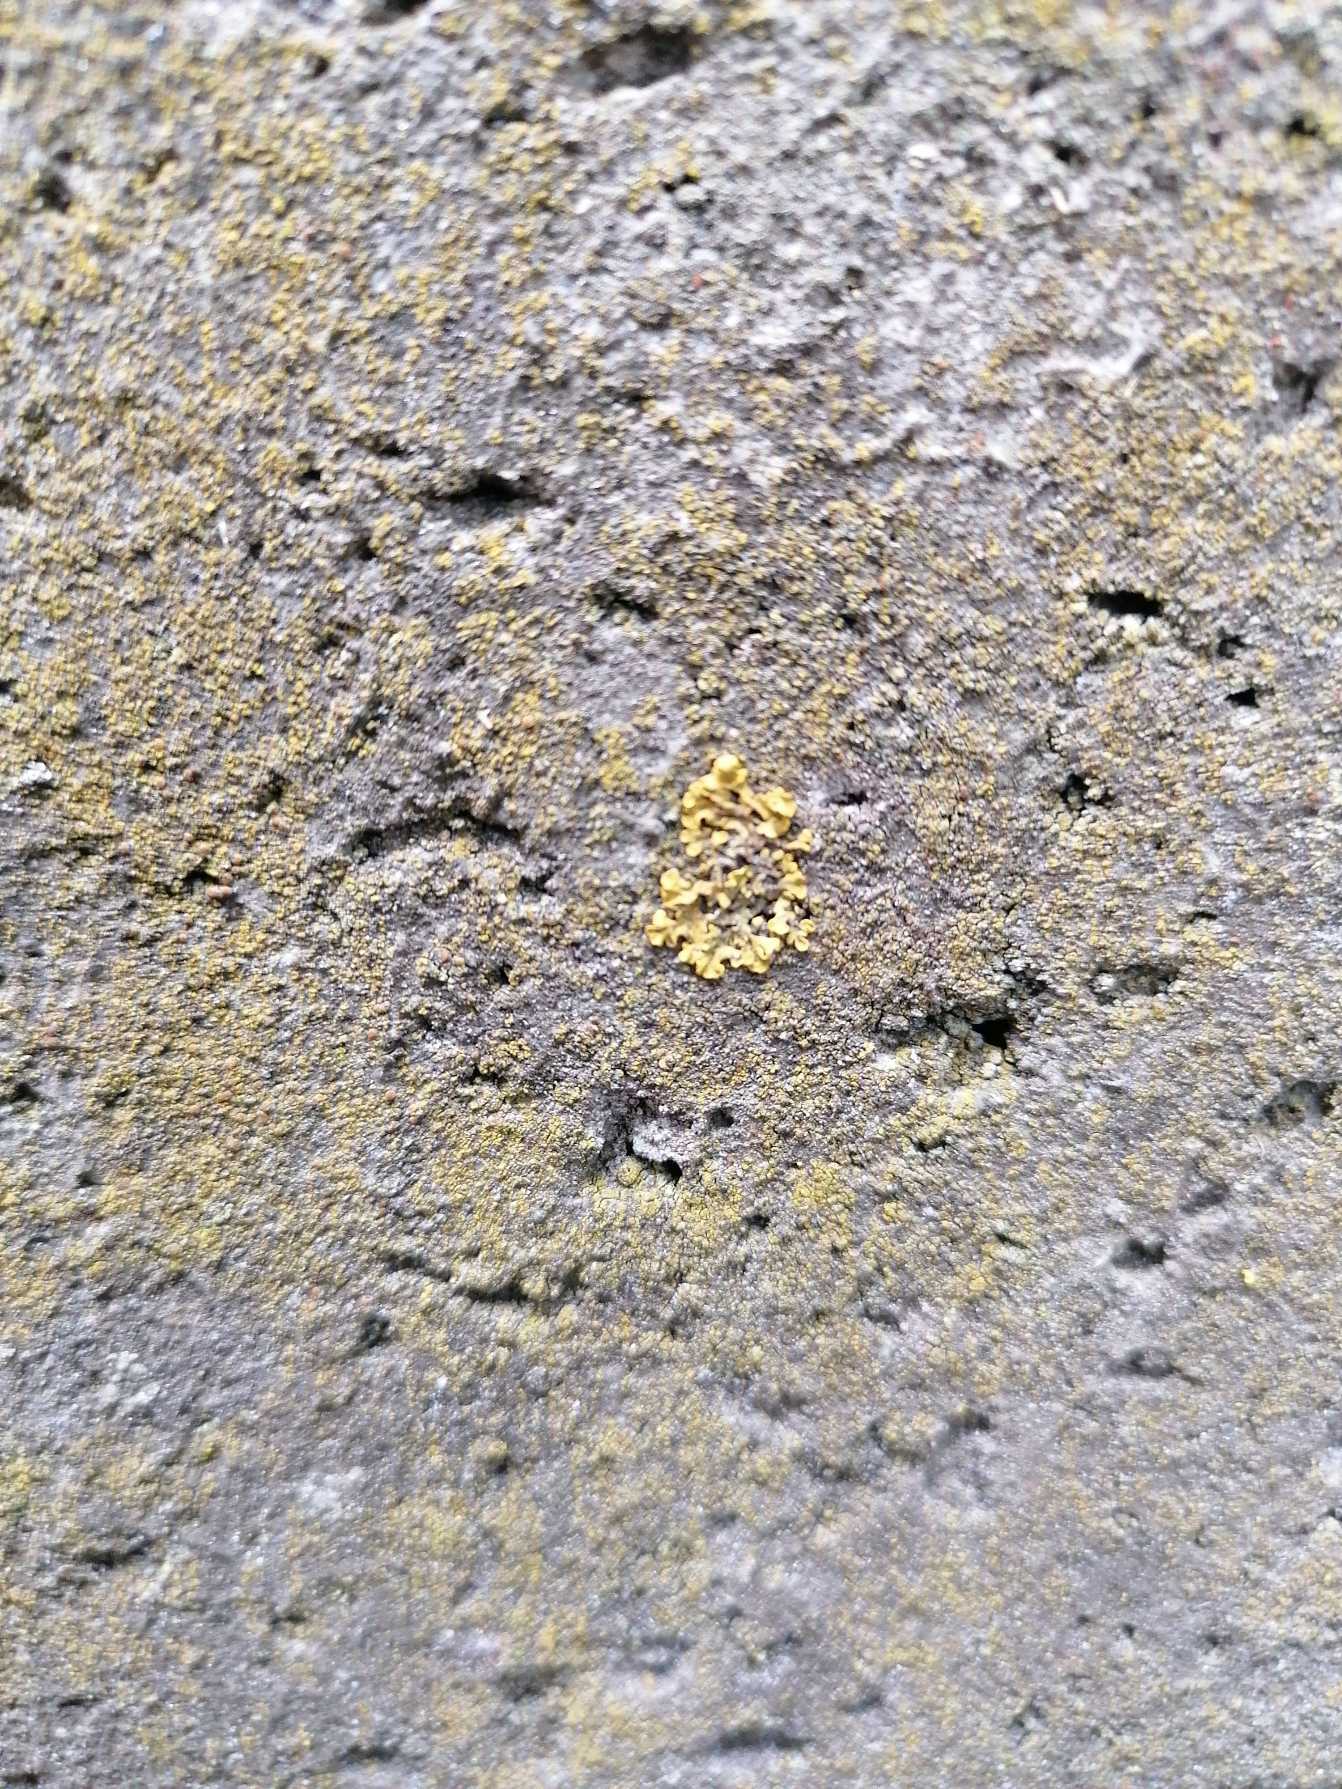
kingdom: Fungi
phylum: Ascomycota
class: Lecanoromycetes
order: Teloschistales
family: Teloschistaceae
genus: Xanthoria
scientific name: Xanthoria parietina
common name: Almindelig væggelav
